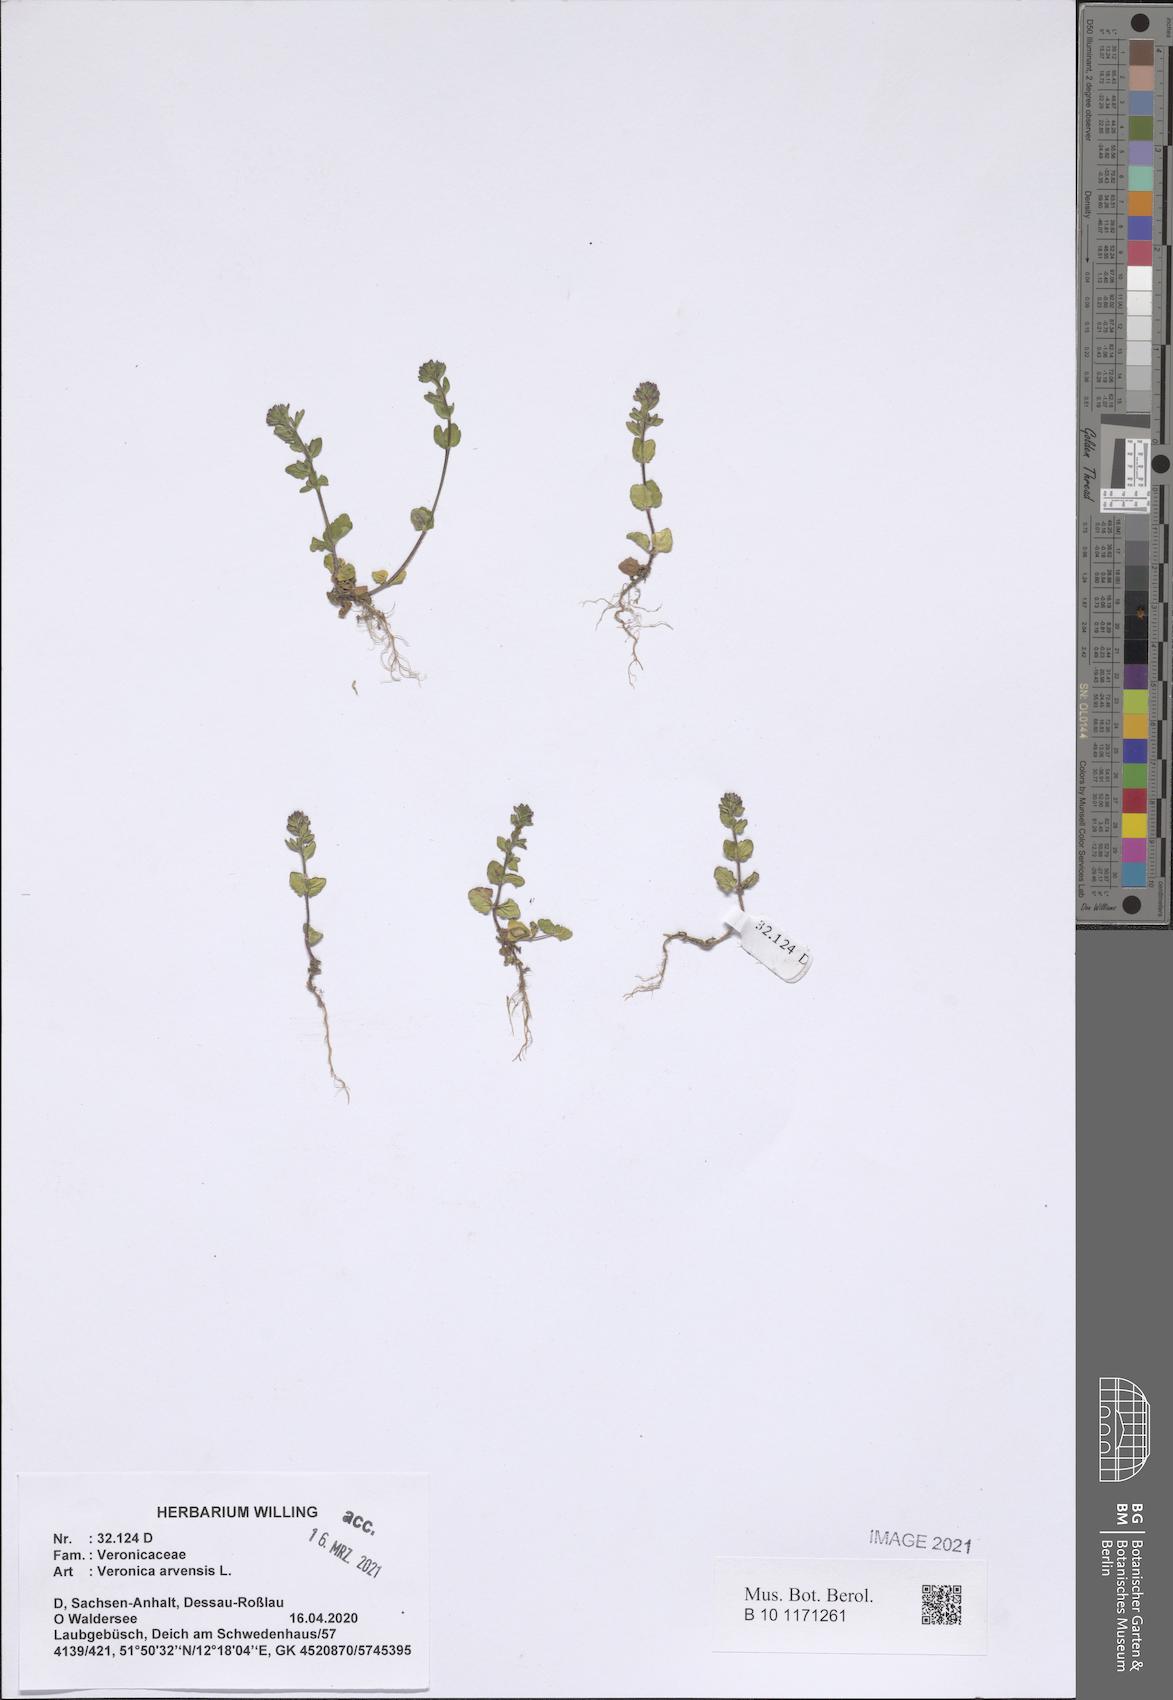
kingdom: Plantae
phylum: Tracheophyta
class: Magnoliopsida
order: Lamiales
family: Plantaginaceae
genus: Veronica
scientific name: Veronica arvensis
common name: Corn speedwell
